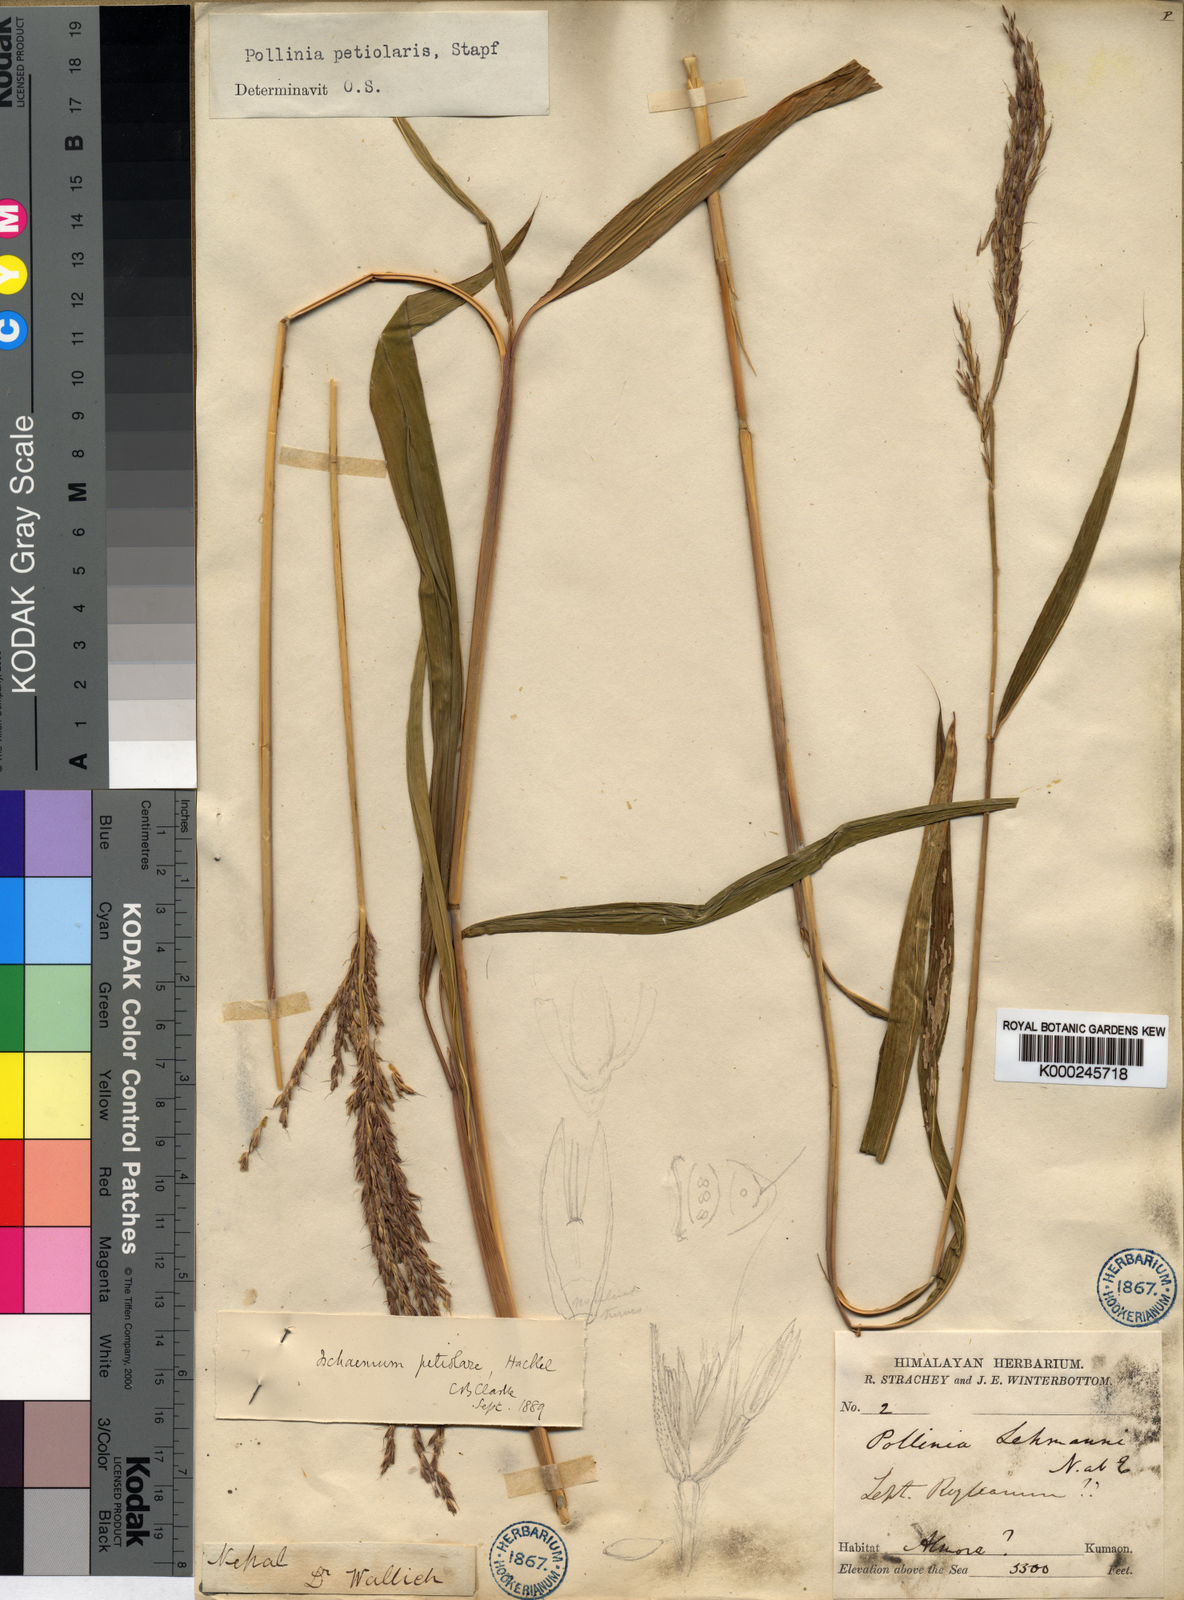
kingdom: Plantae
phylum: Tracheophyta
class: Liliopsida
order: Poales
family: Poaceae
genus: Microstegium
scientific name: Microstegium petiolare
